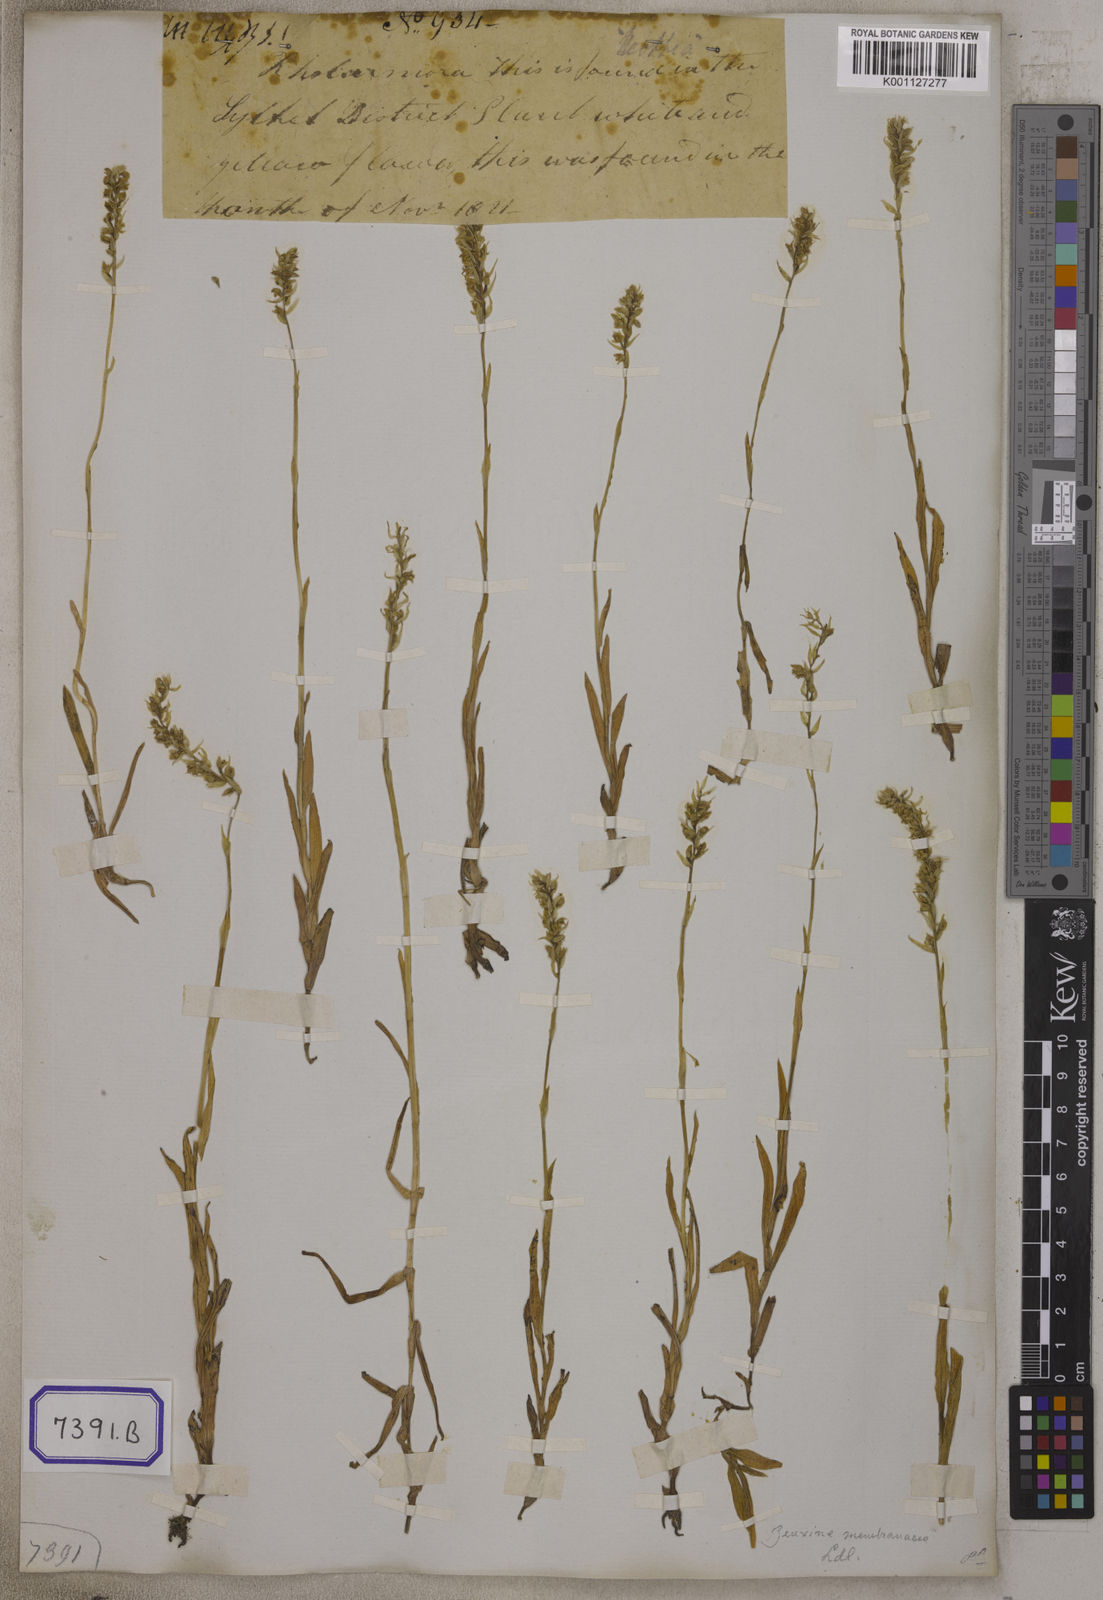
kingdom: Plantae
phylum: Tracheophyta
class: Liliopsida
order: Asparagales
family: Orchidaceae
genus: Zeuxine
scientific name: Zeuxine membranacea
